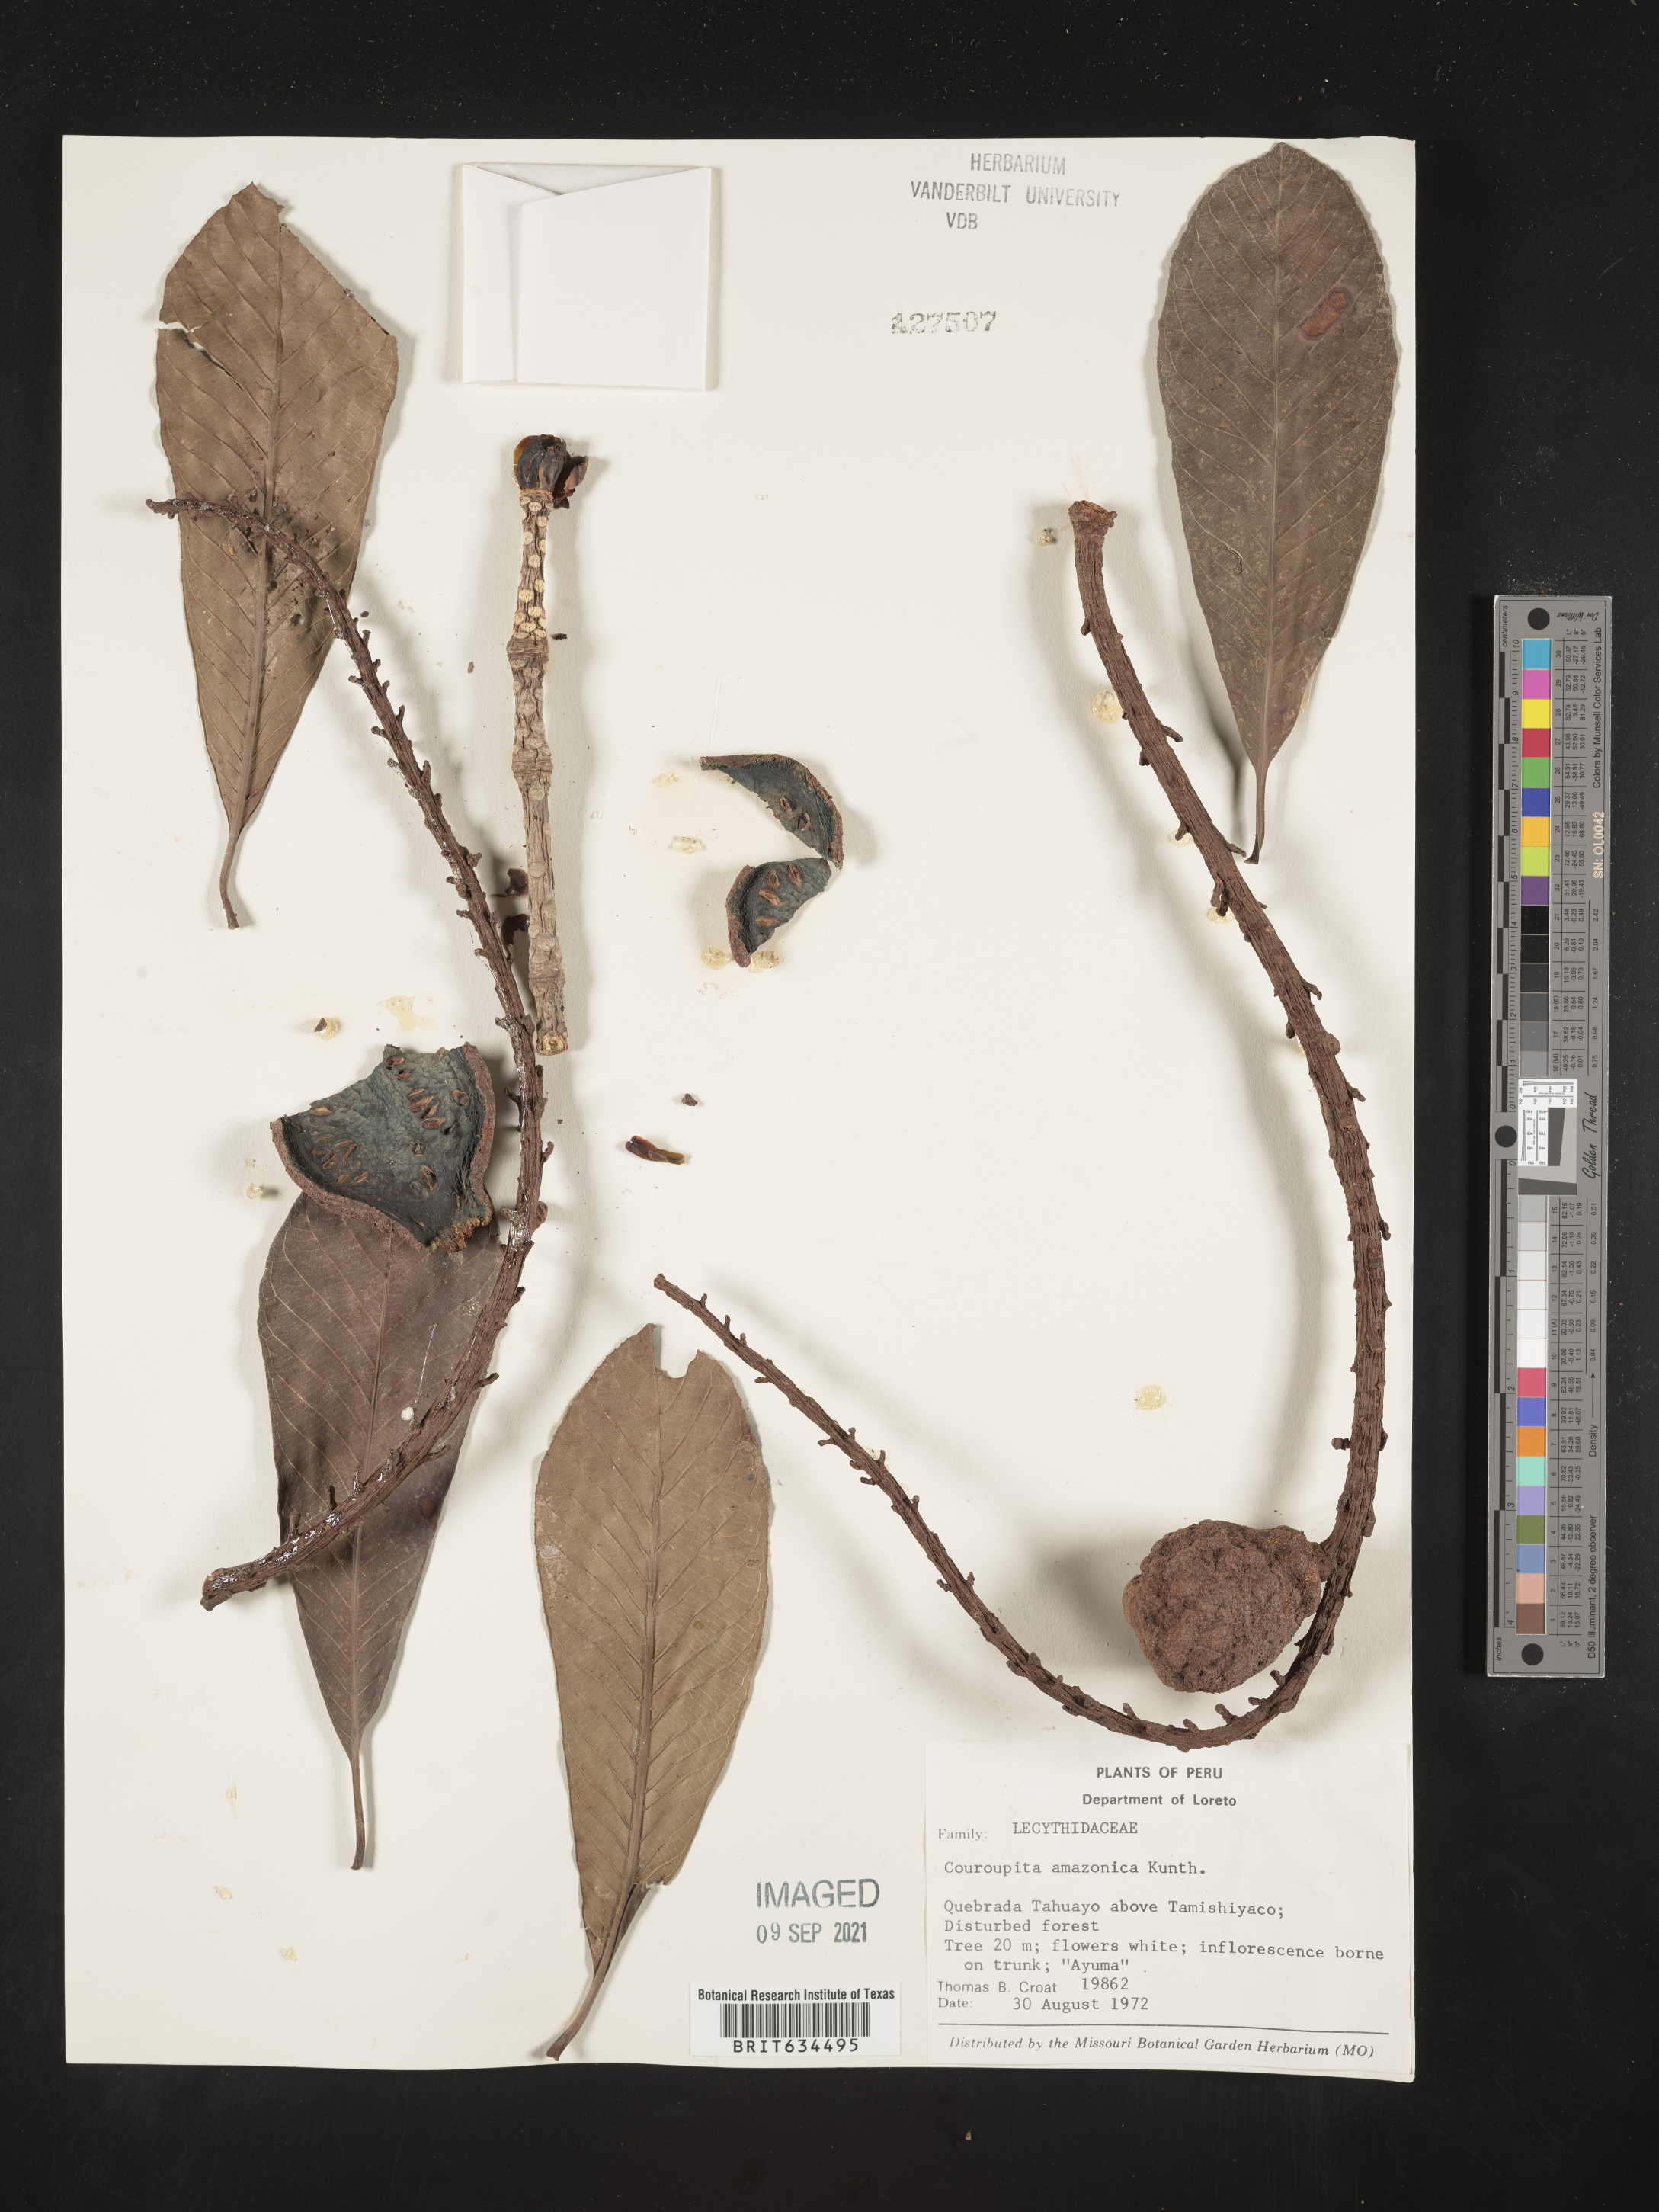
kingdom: Plantae
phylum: Tracheophyta
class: Magnoliopsida
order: Ericales
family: Lecythidaceae
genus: Couroupita
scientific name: Couroupita
